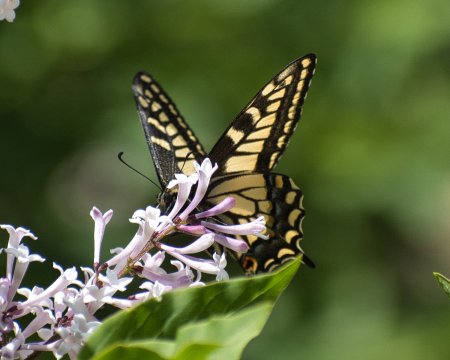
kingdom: Animalia
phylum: Arthropoda
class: Insecta
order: Lepidoptera
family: Papilionidae
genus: Papilio
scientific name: Papilio zelicaon
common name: Anise Swallowtail
